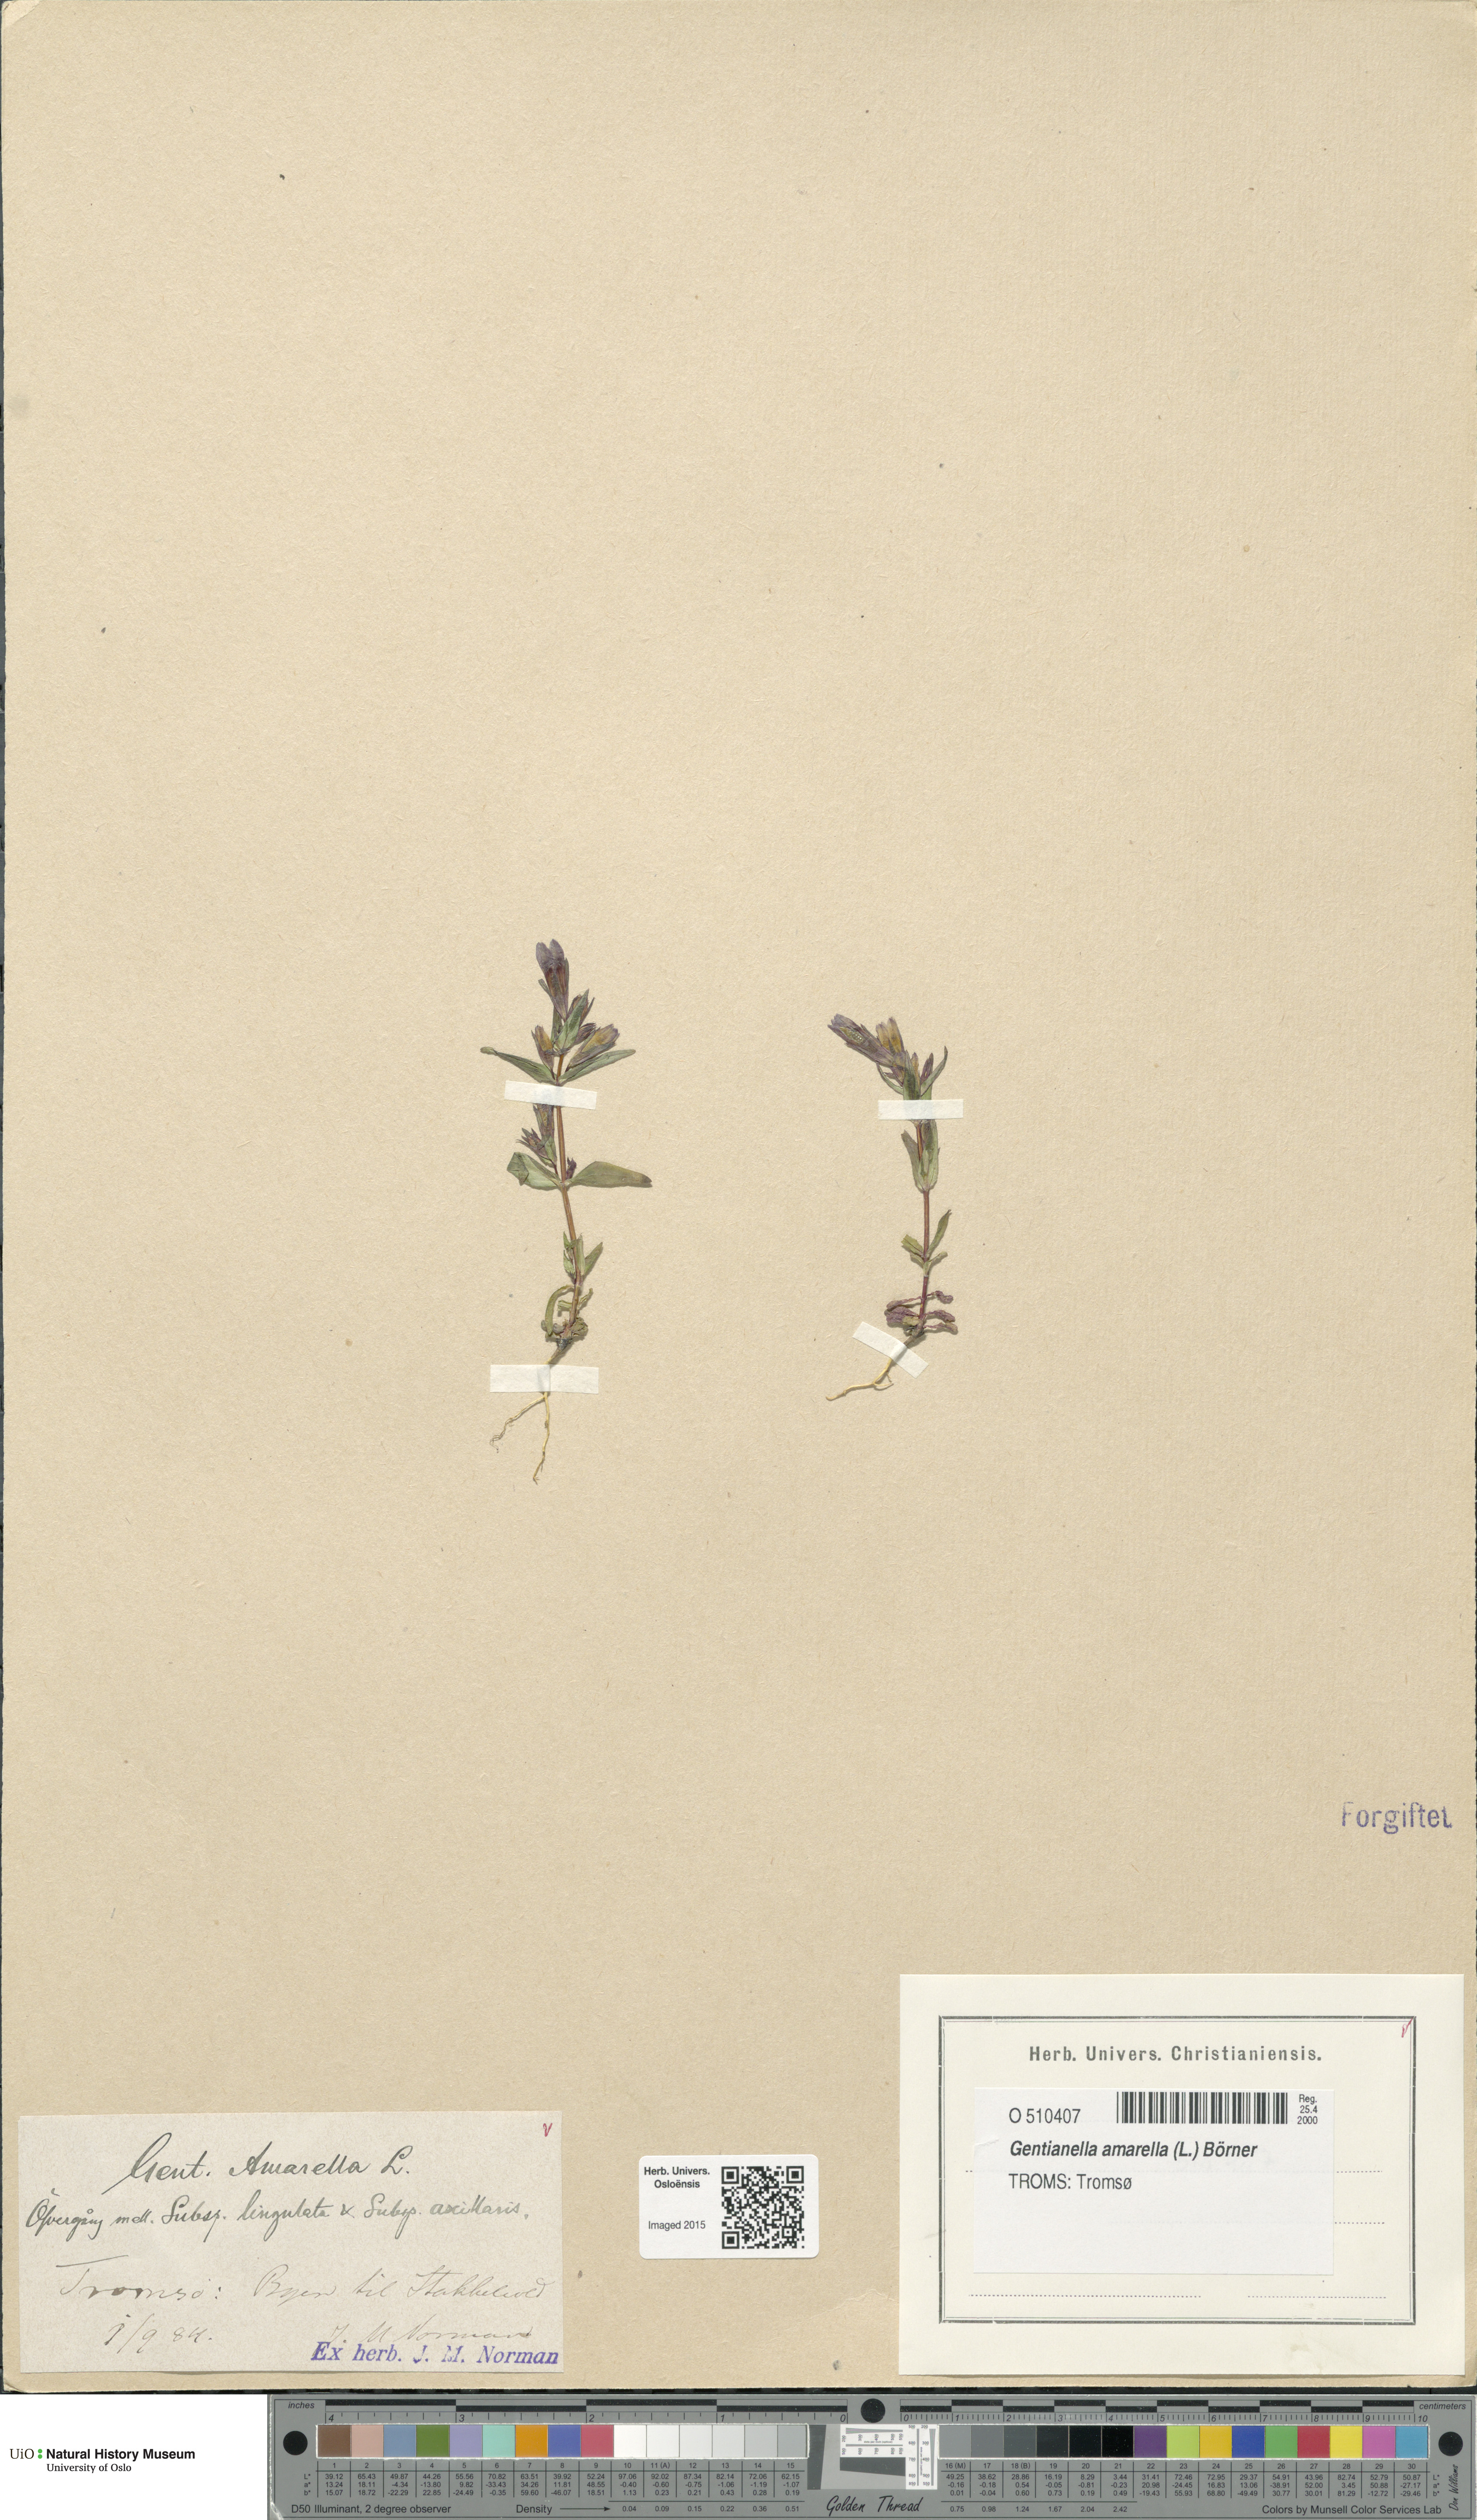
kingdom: Plantae
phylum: Tracheophyta
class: Magnoliopsida
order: Gentianales
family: Gentianaceae
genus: Gentianella
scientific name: Gentianella amarella
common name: Autumn gentian
